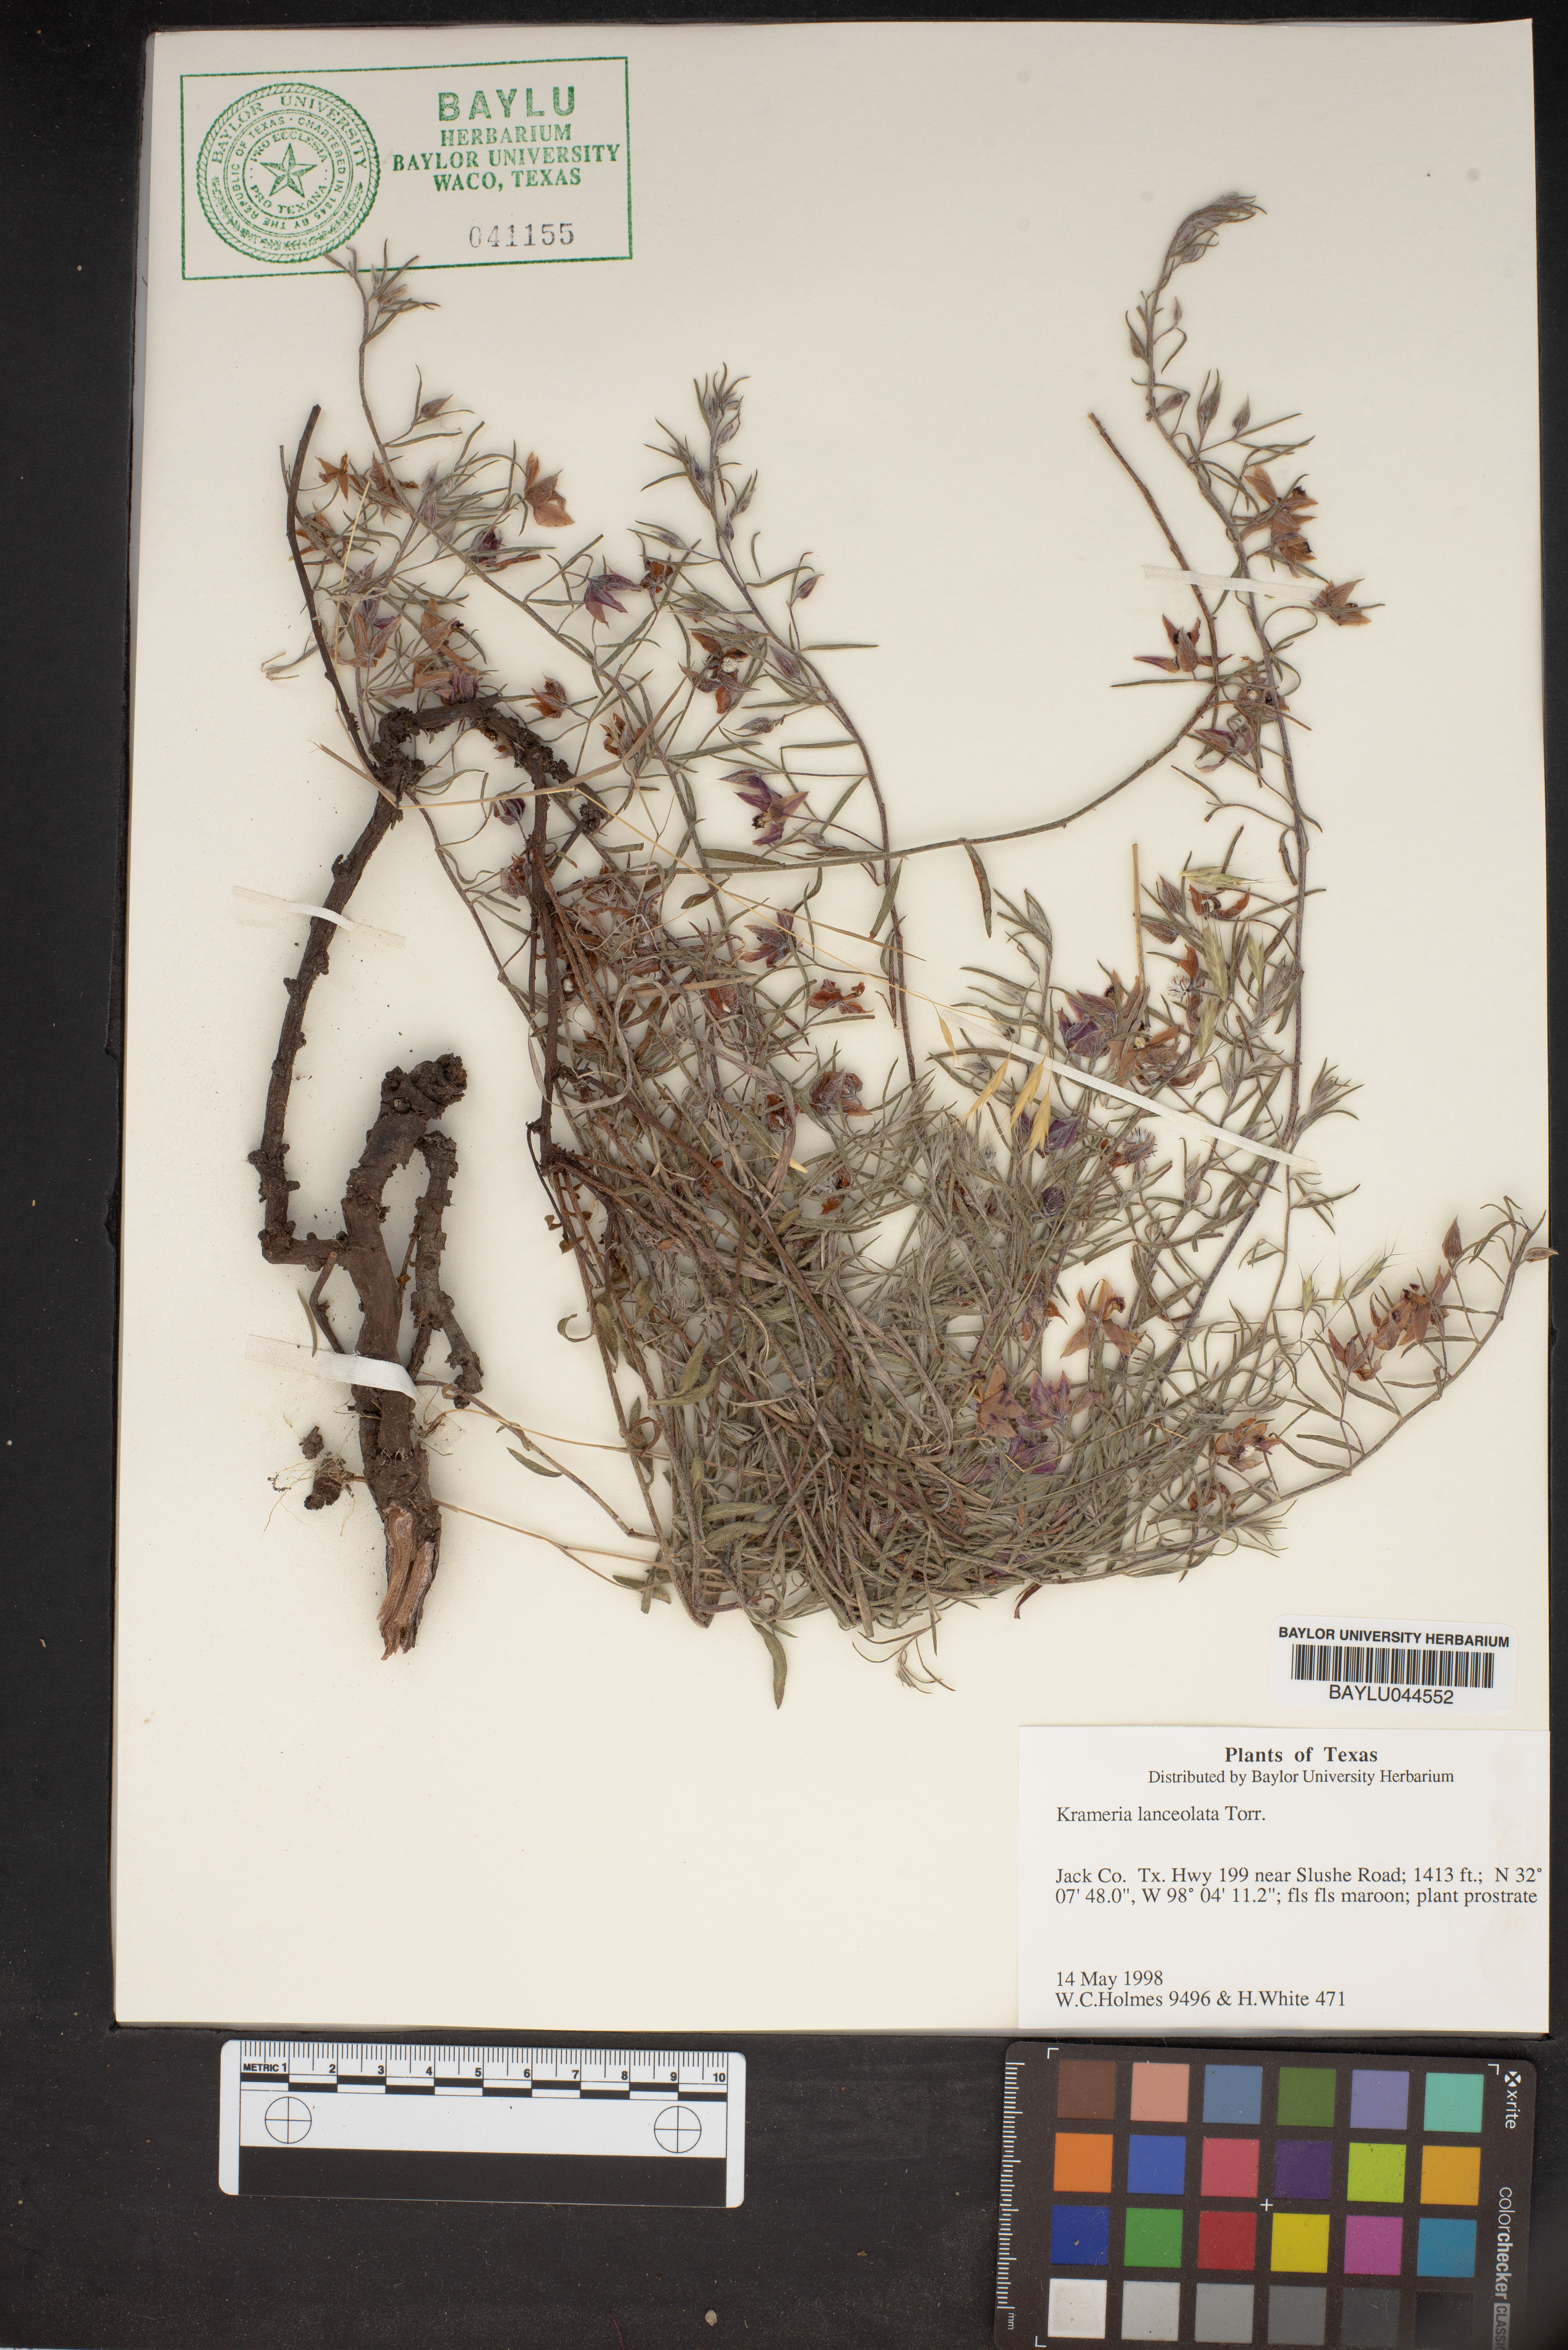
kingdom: Plantae
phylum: Tracheophyta
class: Magnoliopsida
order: Zygophyllales
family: Krameriaceae
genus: Krameria
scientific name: Krameria lanceolata
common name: Ratany
